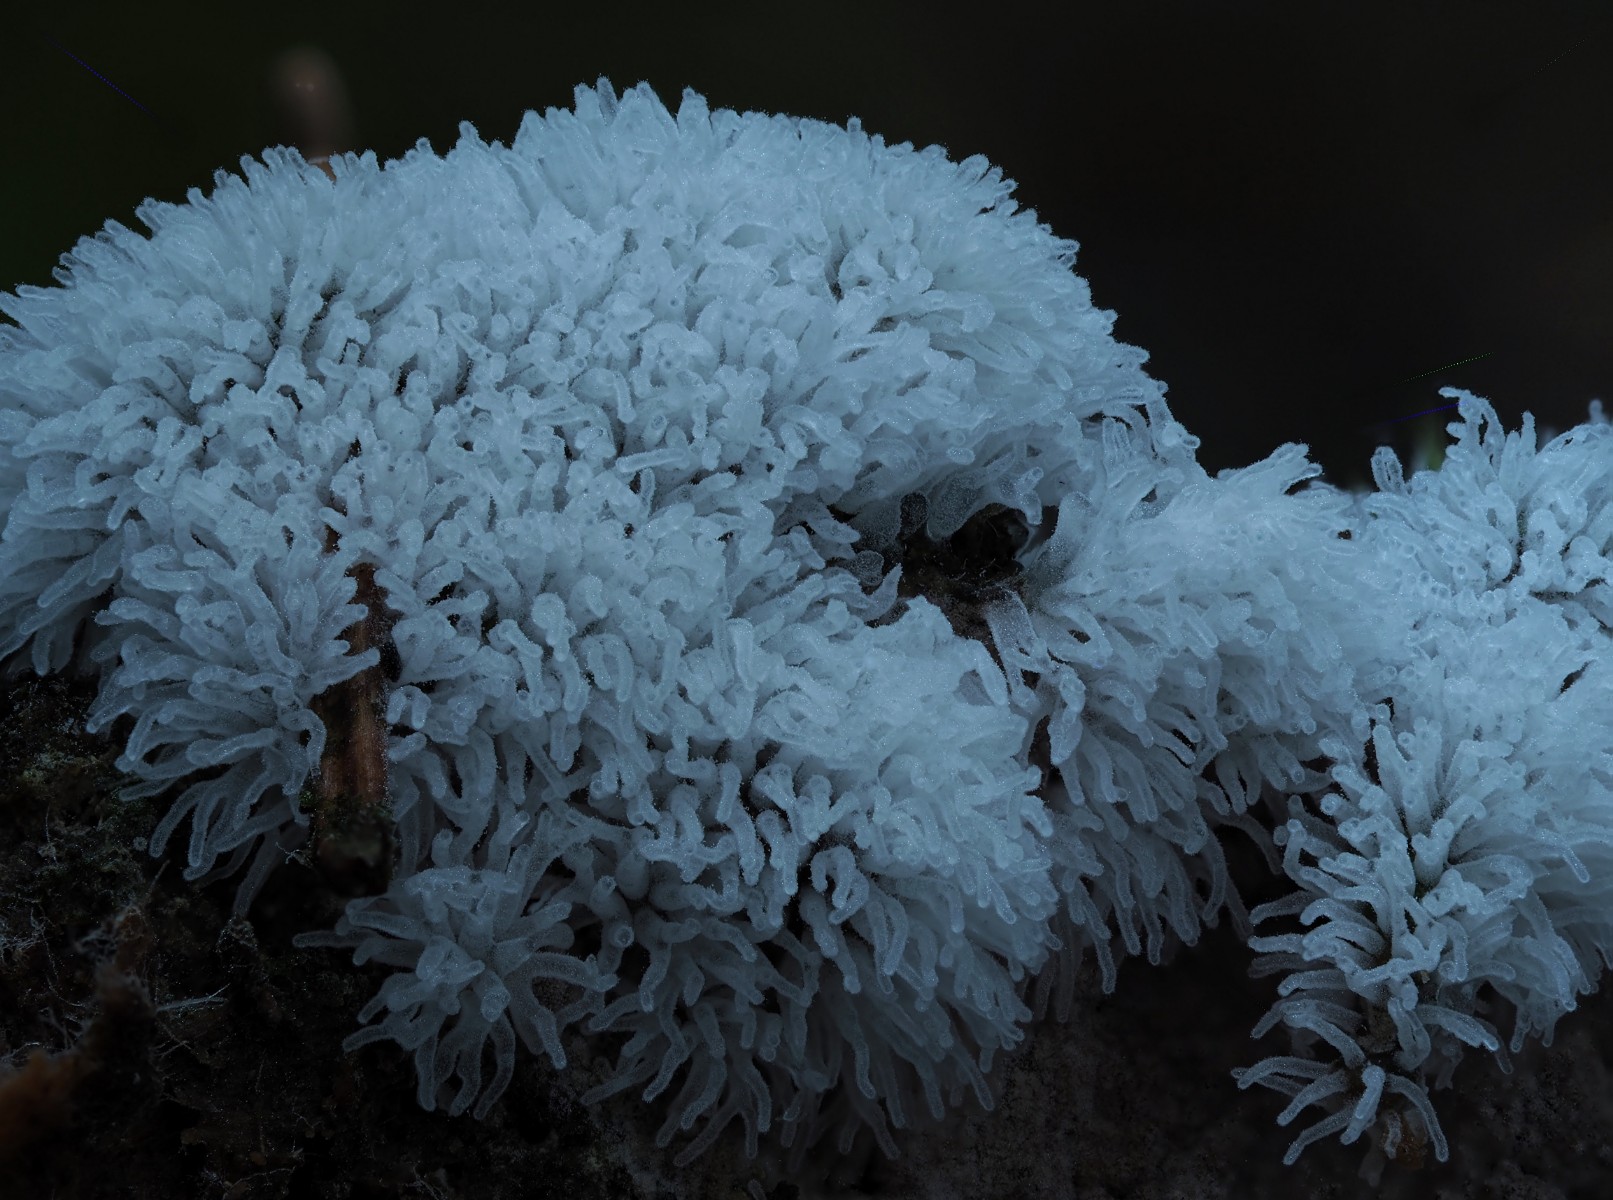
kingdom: Protozoa
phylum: Mycetozoa
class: Protosteliomycetes
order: Ceratiomyxales
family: Ceratiomyxaceae
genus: Ceratiomyxa
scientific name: Ceratiomyxa fruticulosa
